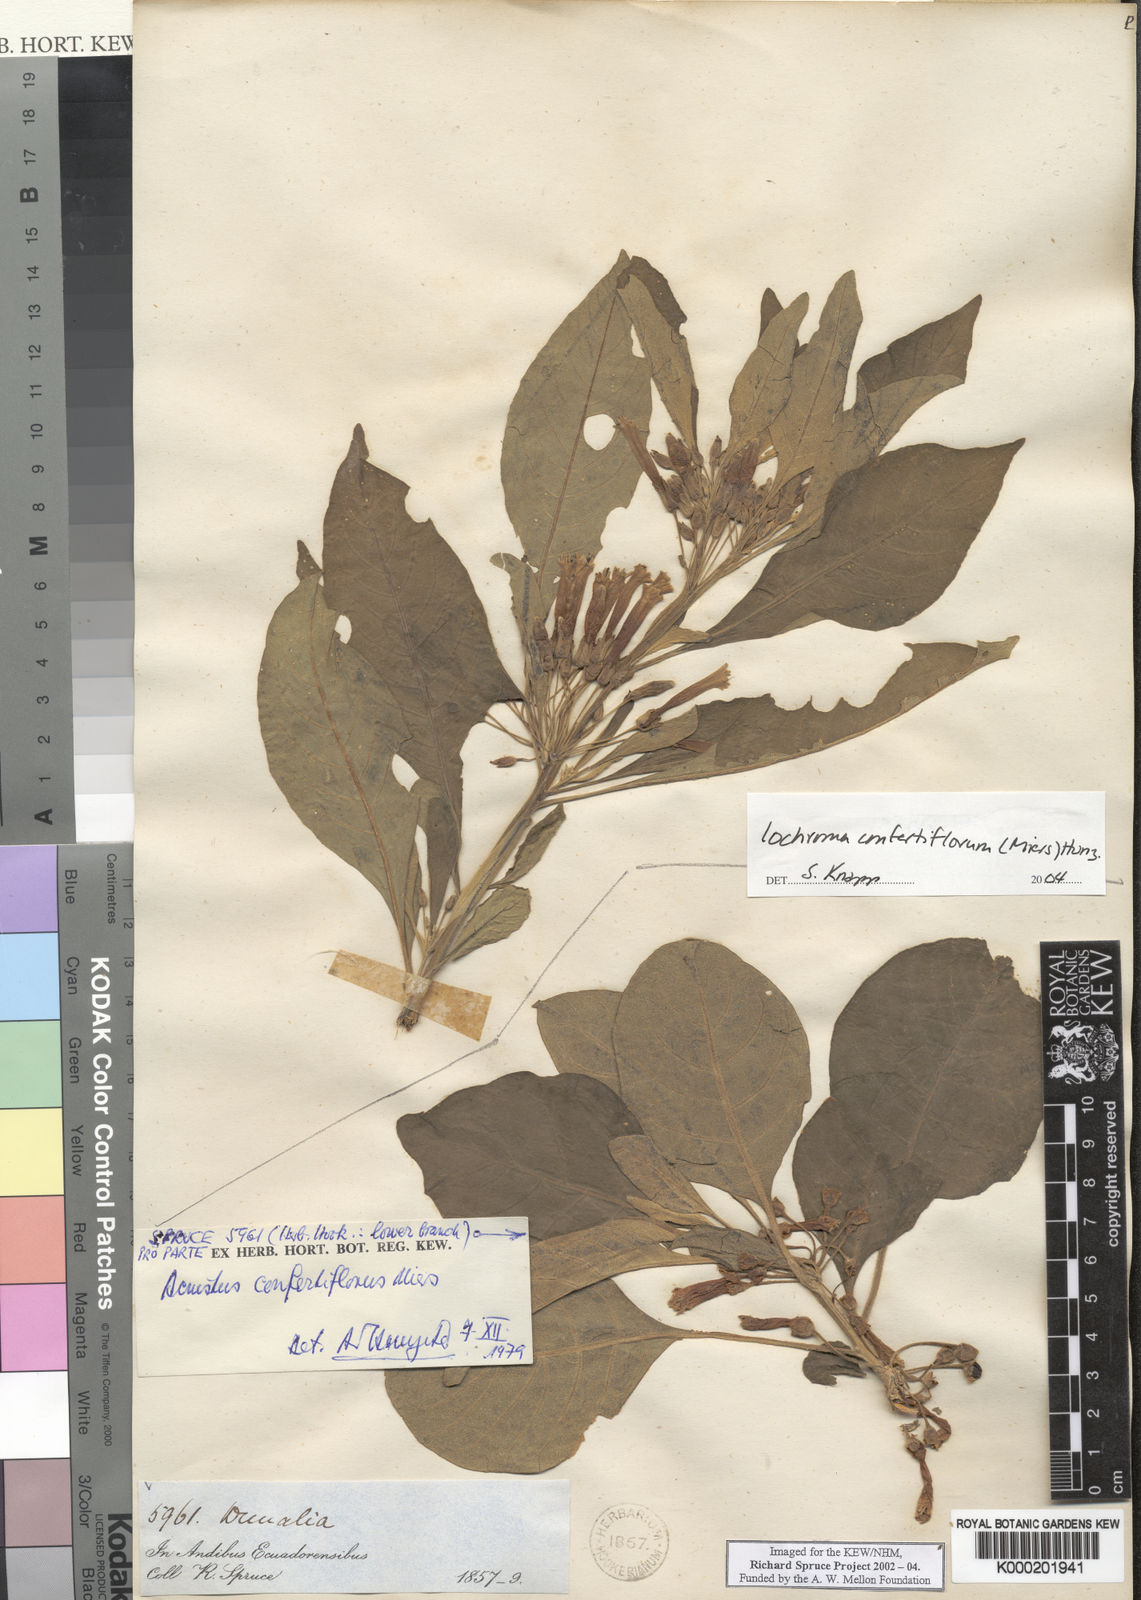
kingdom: Plantae
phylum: Tracheophyta
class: Magnoliopsida
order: Solanales
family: Solanaceae
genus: Iochroma
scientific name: Iochroma confertiflorum
